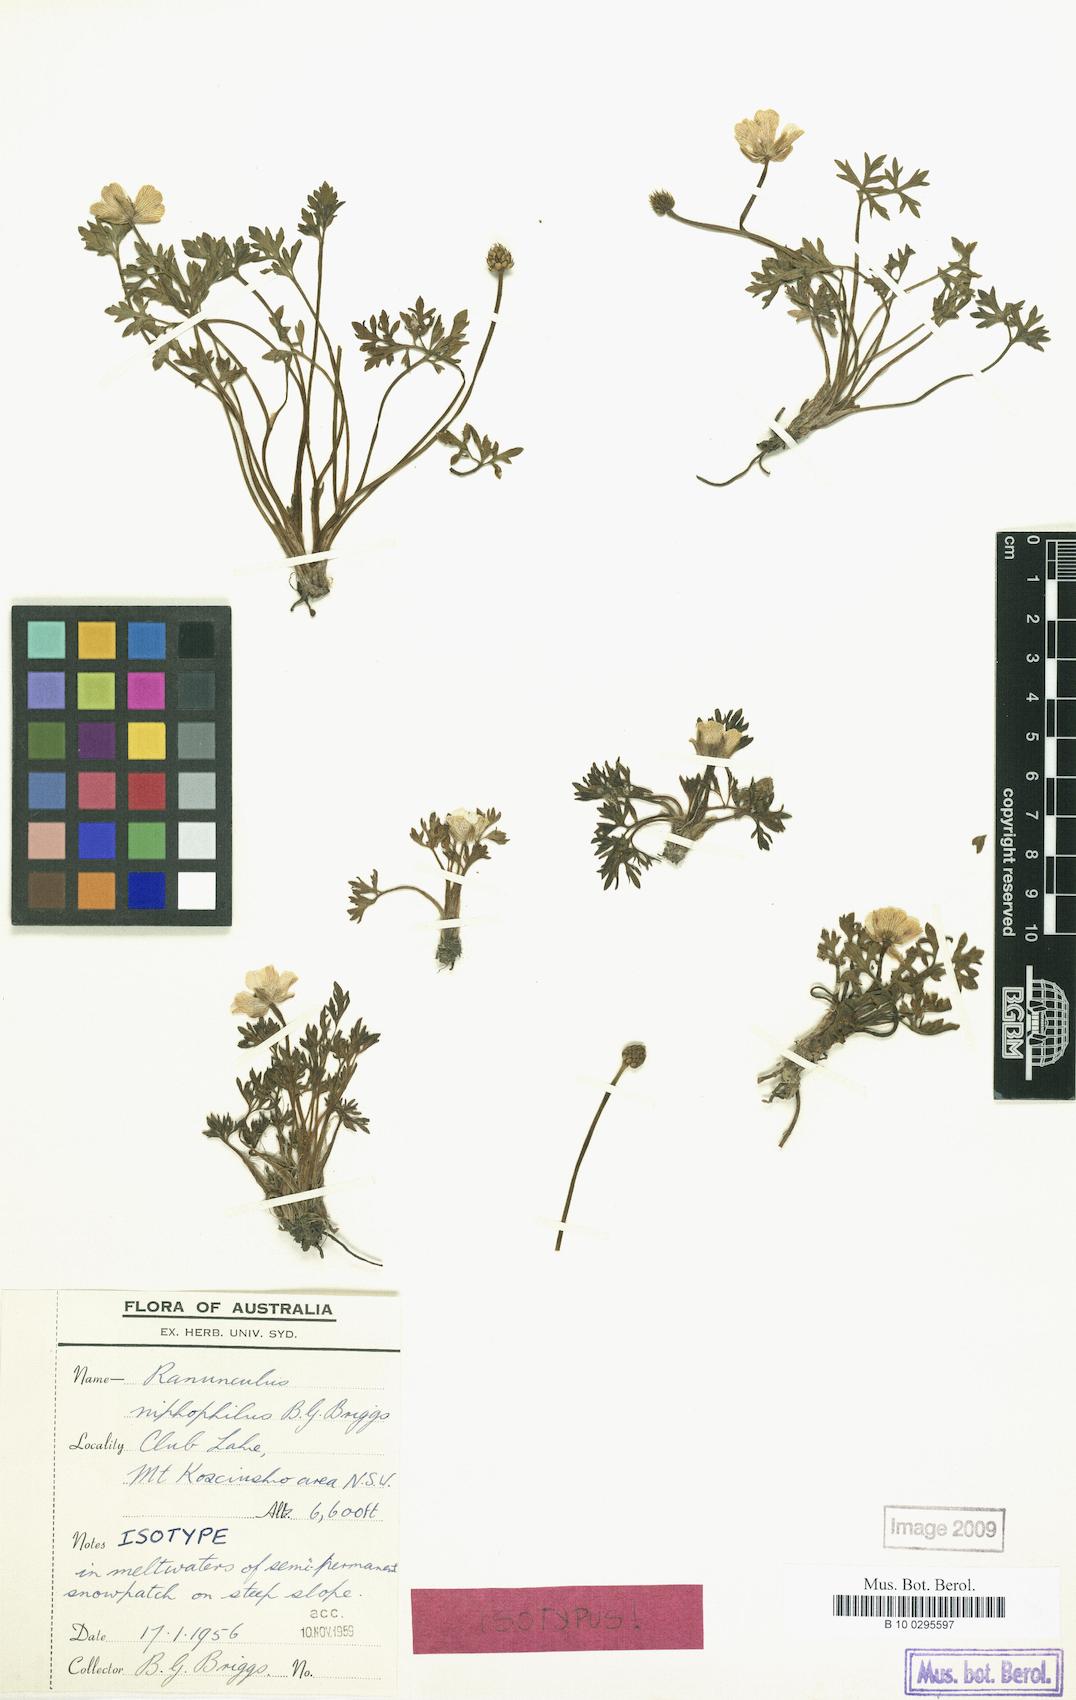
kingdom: Plantae
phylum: Tracheophyta
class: Magnoliopsida
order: Ranunculales
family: Ranunculaceae
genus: Ranunculus
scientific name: Ranunculus niphophilus
